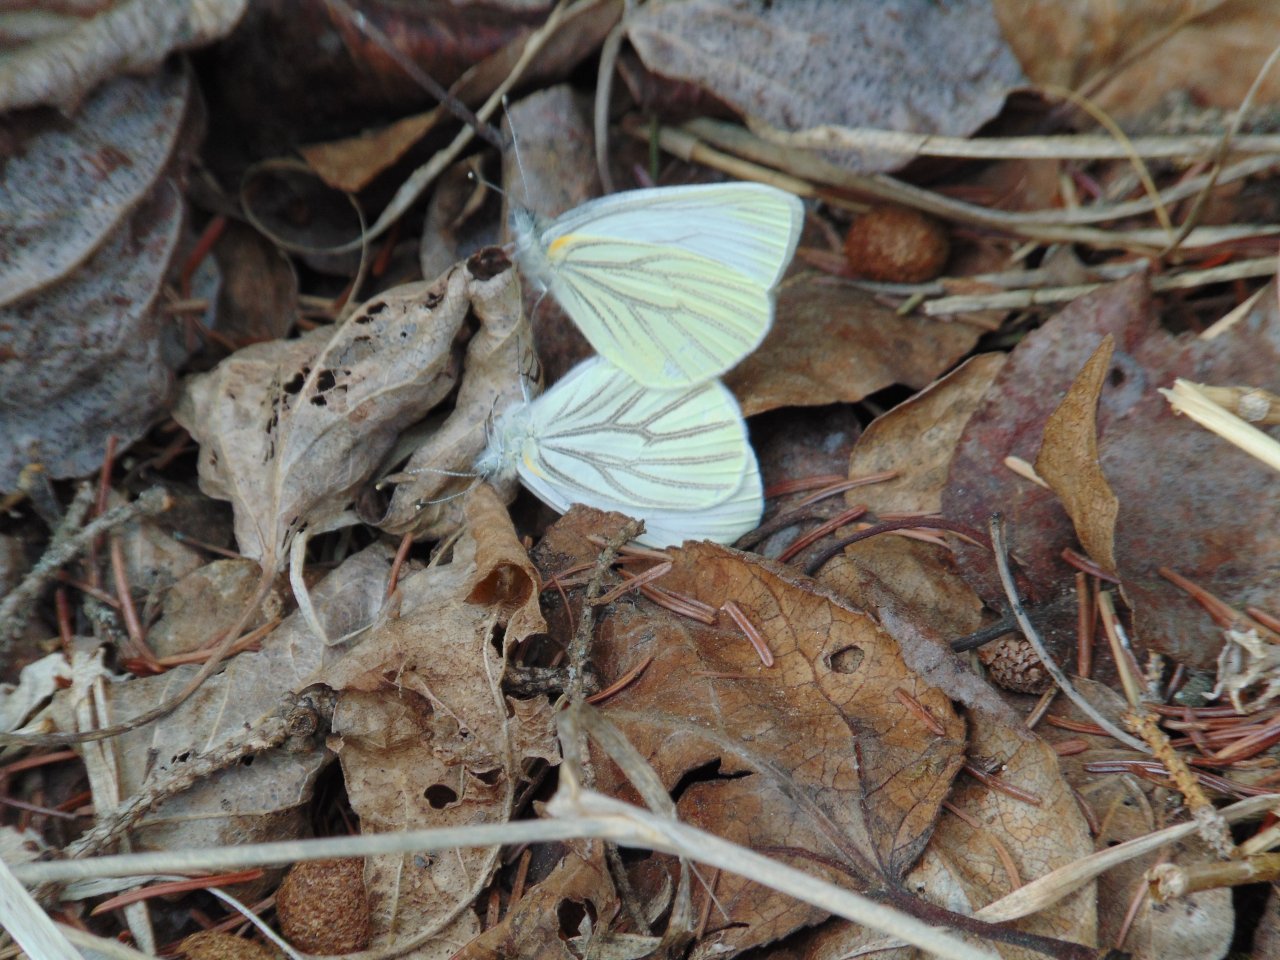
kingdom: Animalia
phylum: Arthropoda
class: Insecta
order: Lepidoptera
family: Pieridae
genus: Pieris
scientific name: Pieris oleracea
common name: Mustard White
